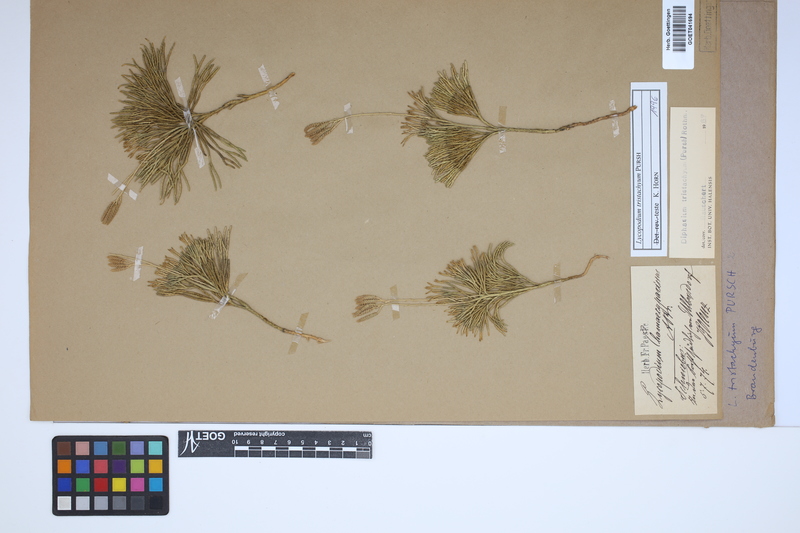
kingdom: Plantae
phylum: Tracheophyta
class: Lycopodiopsida
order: Lycopodiales
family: Lycopodiaceae
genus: Diphasiastrum
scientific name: Diphasiastrum tristachyum
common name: Blue ground-cedar
